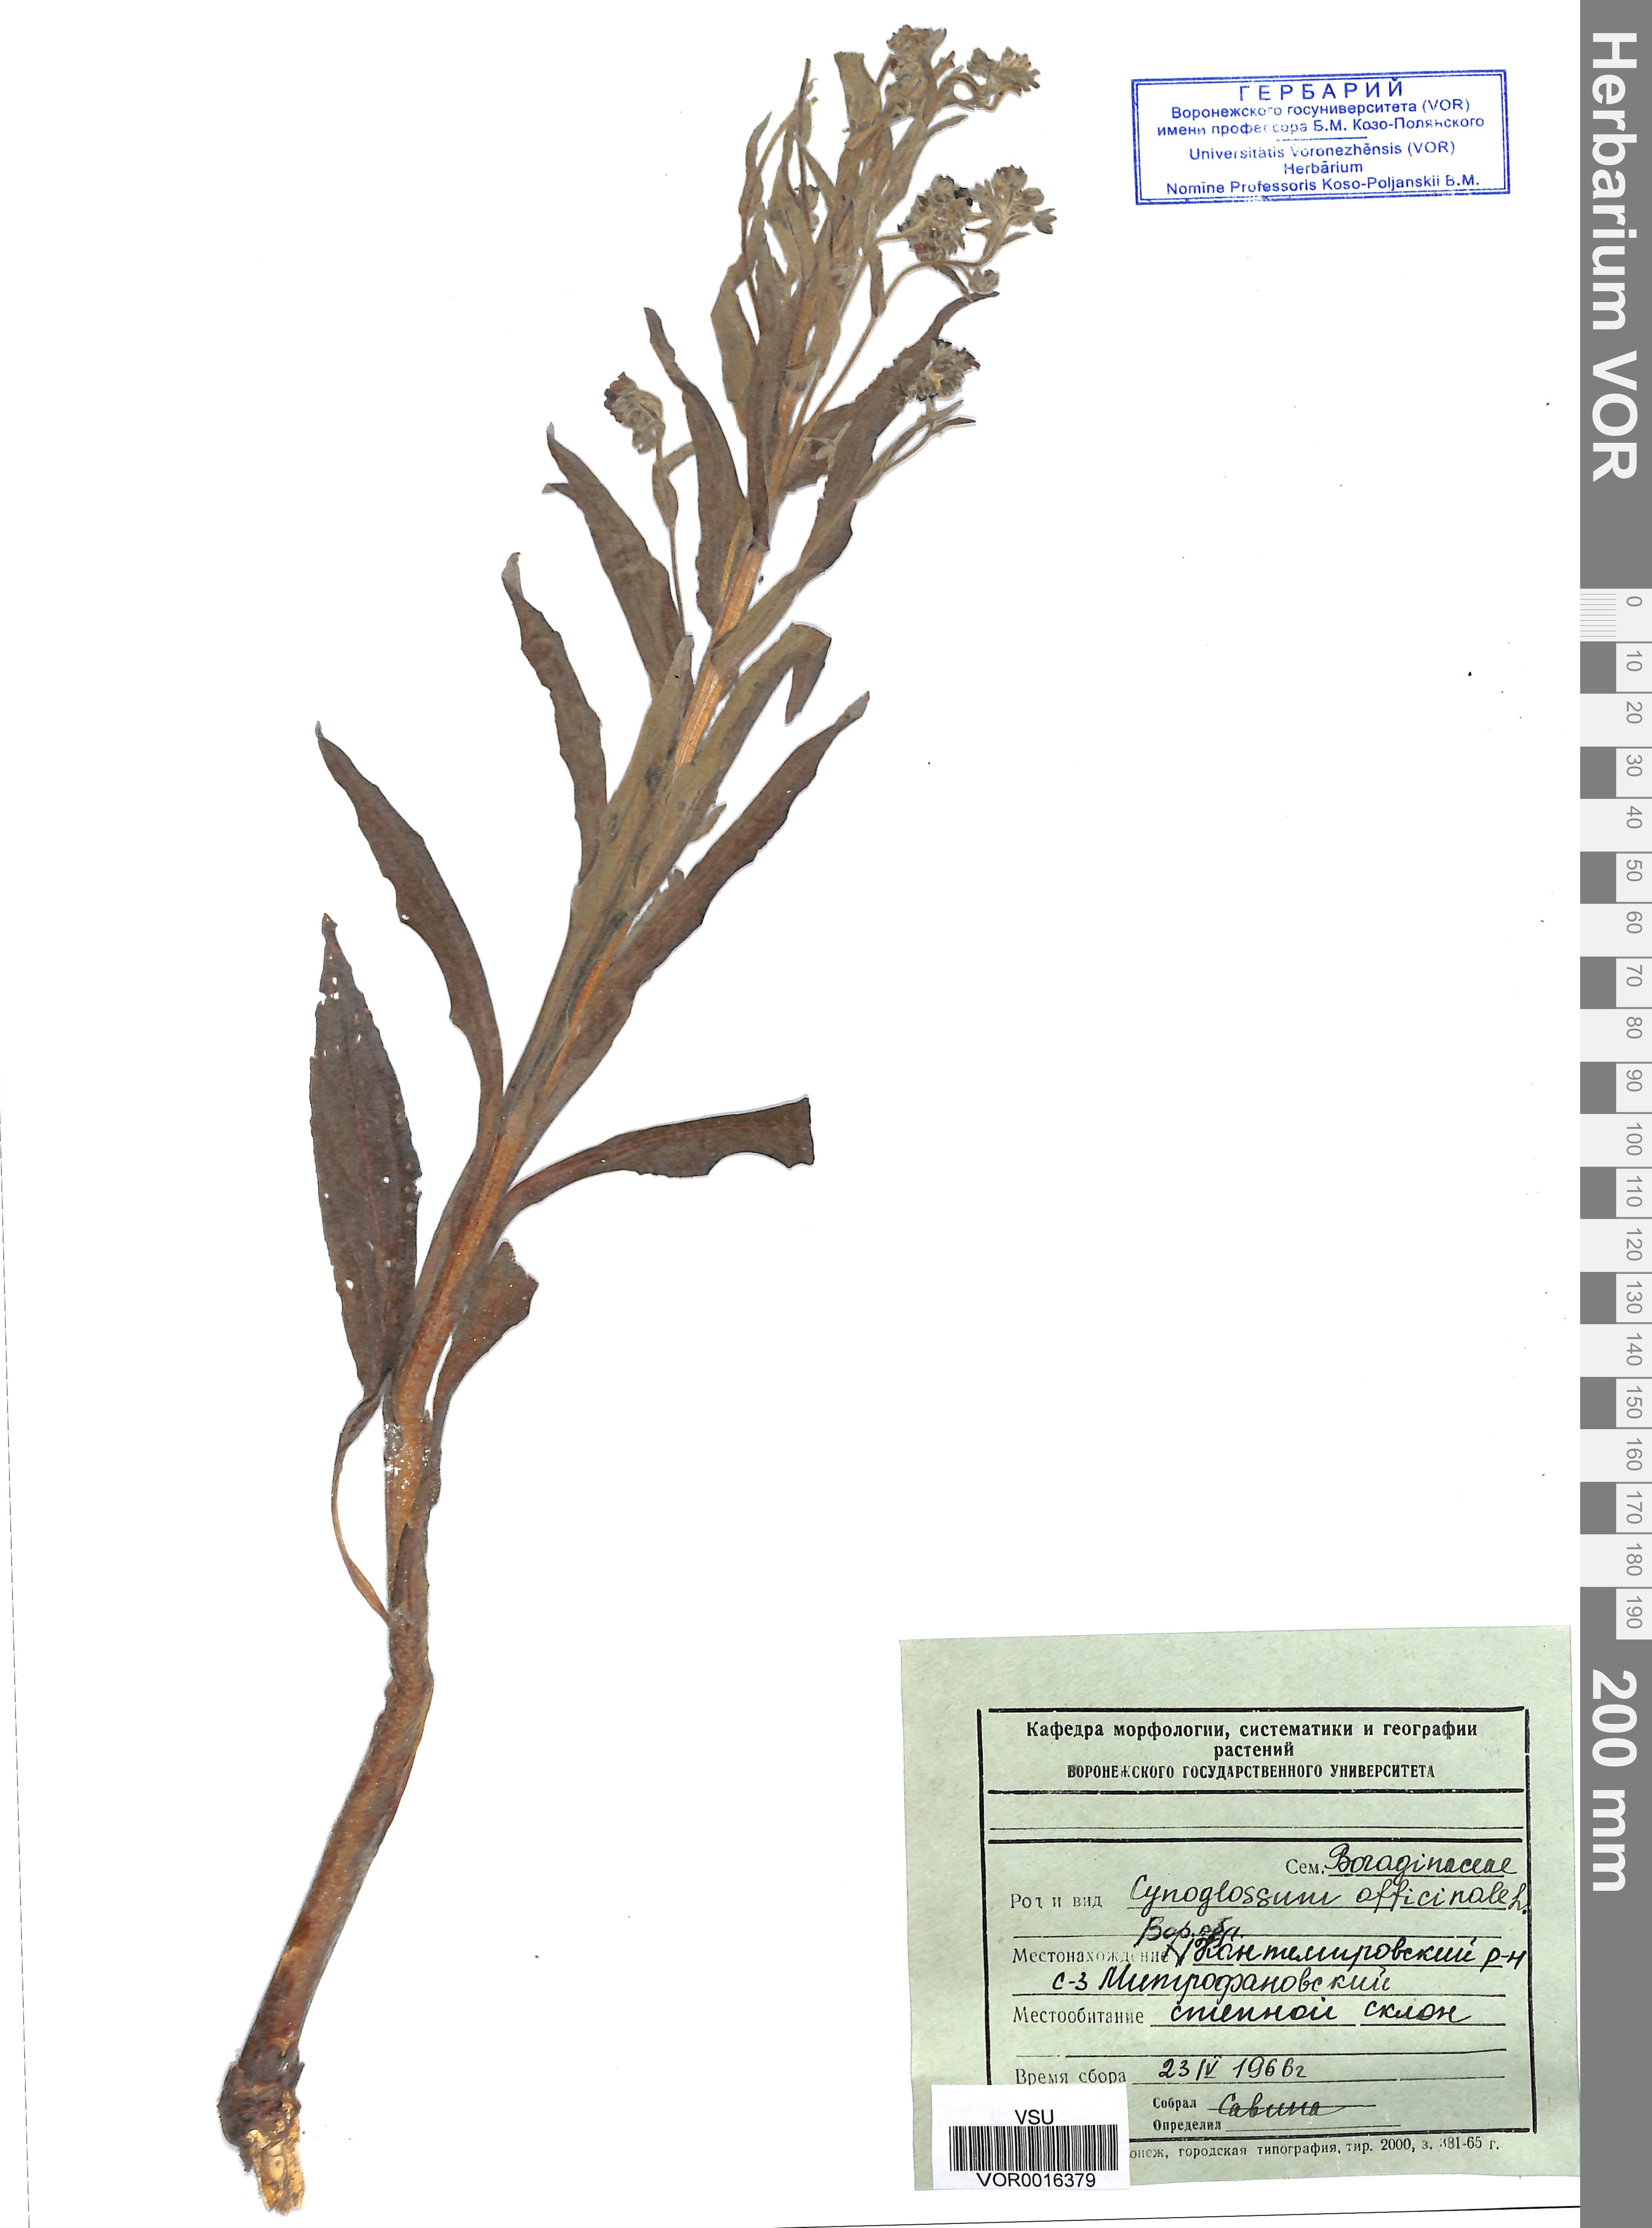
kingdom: Plantae
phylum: Tracheophyta
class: Magnoliopsida
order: Boraginales
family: Boraginaceae
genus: Cynoglossum
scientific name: Cynoglossum officinale
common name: Hound's-tongue
